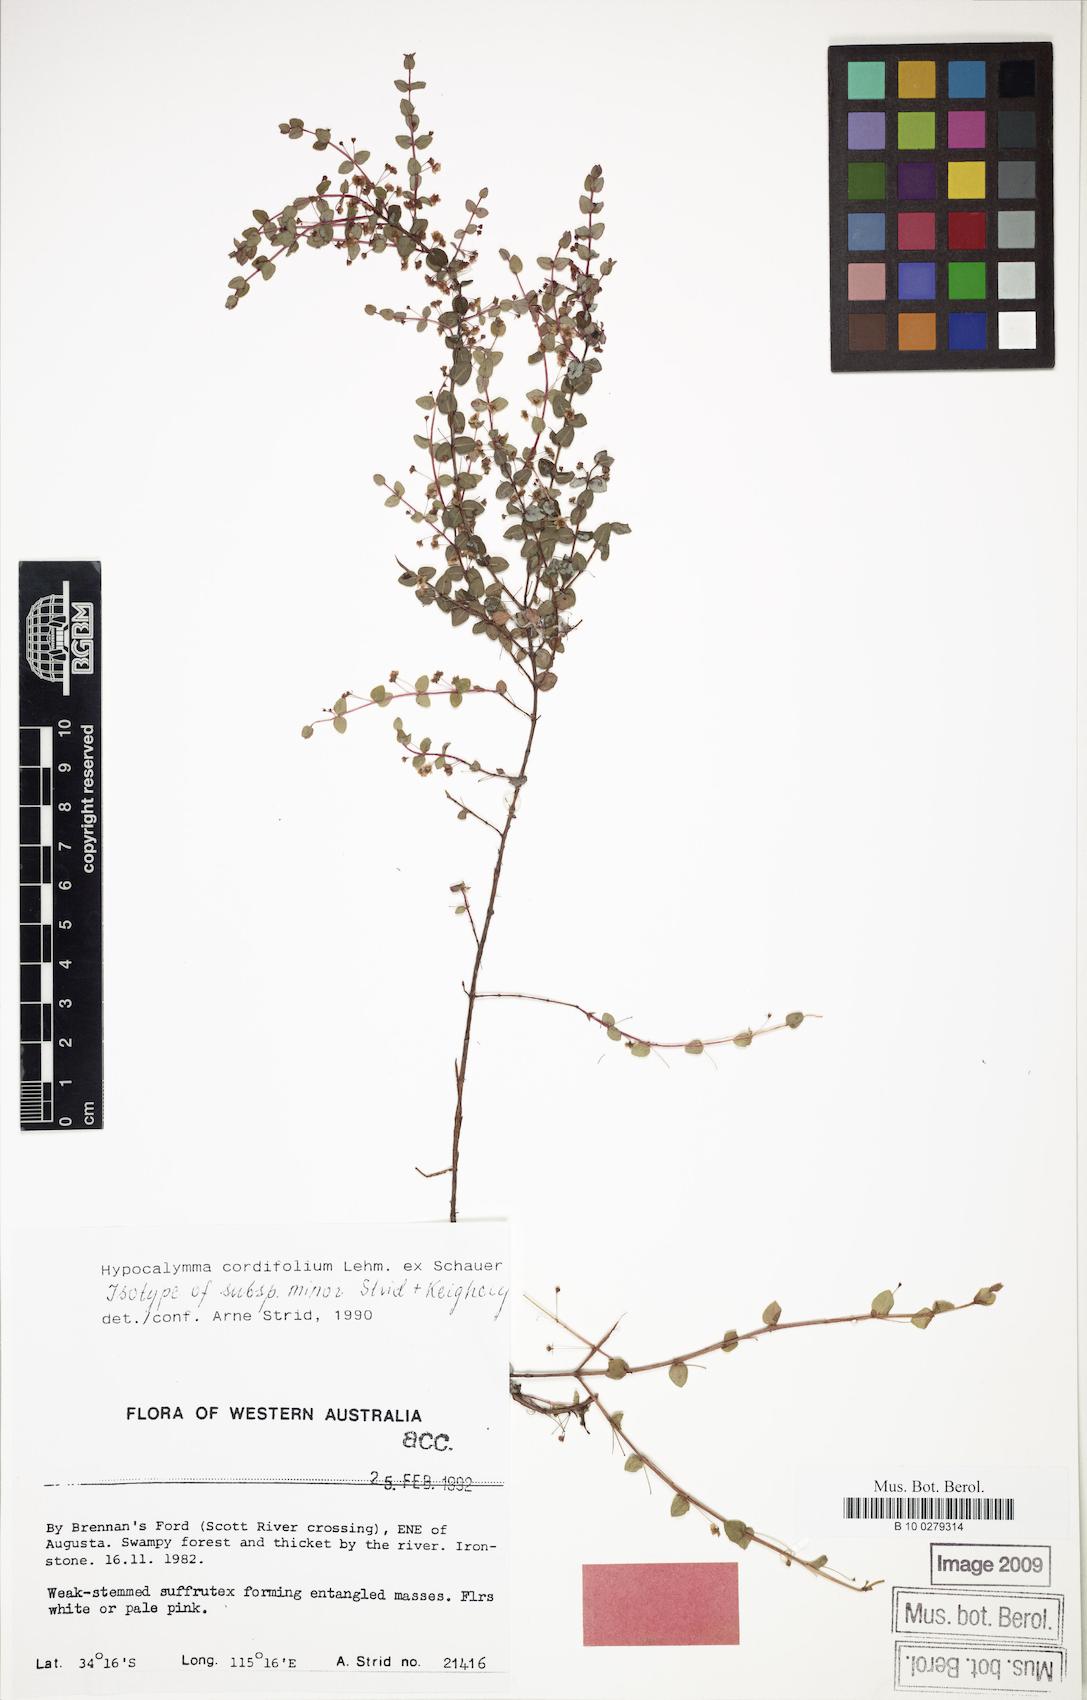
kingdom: Plantae
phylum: Tracheophyta
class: Magnoliopsida
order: Myrtales
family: Myrtaceae
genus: Hypocalymma
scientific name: Hypocalymma minus
